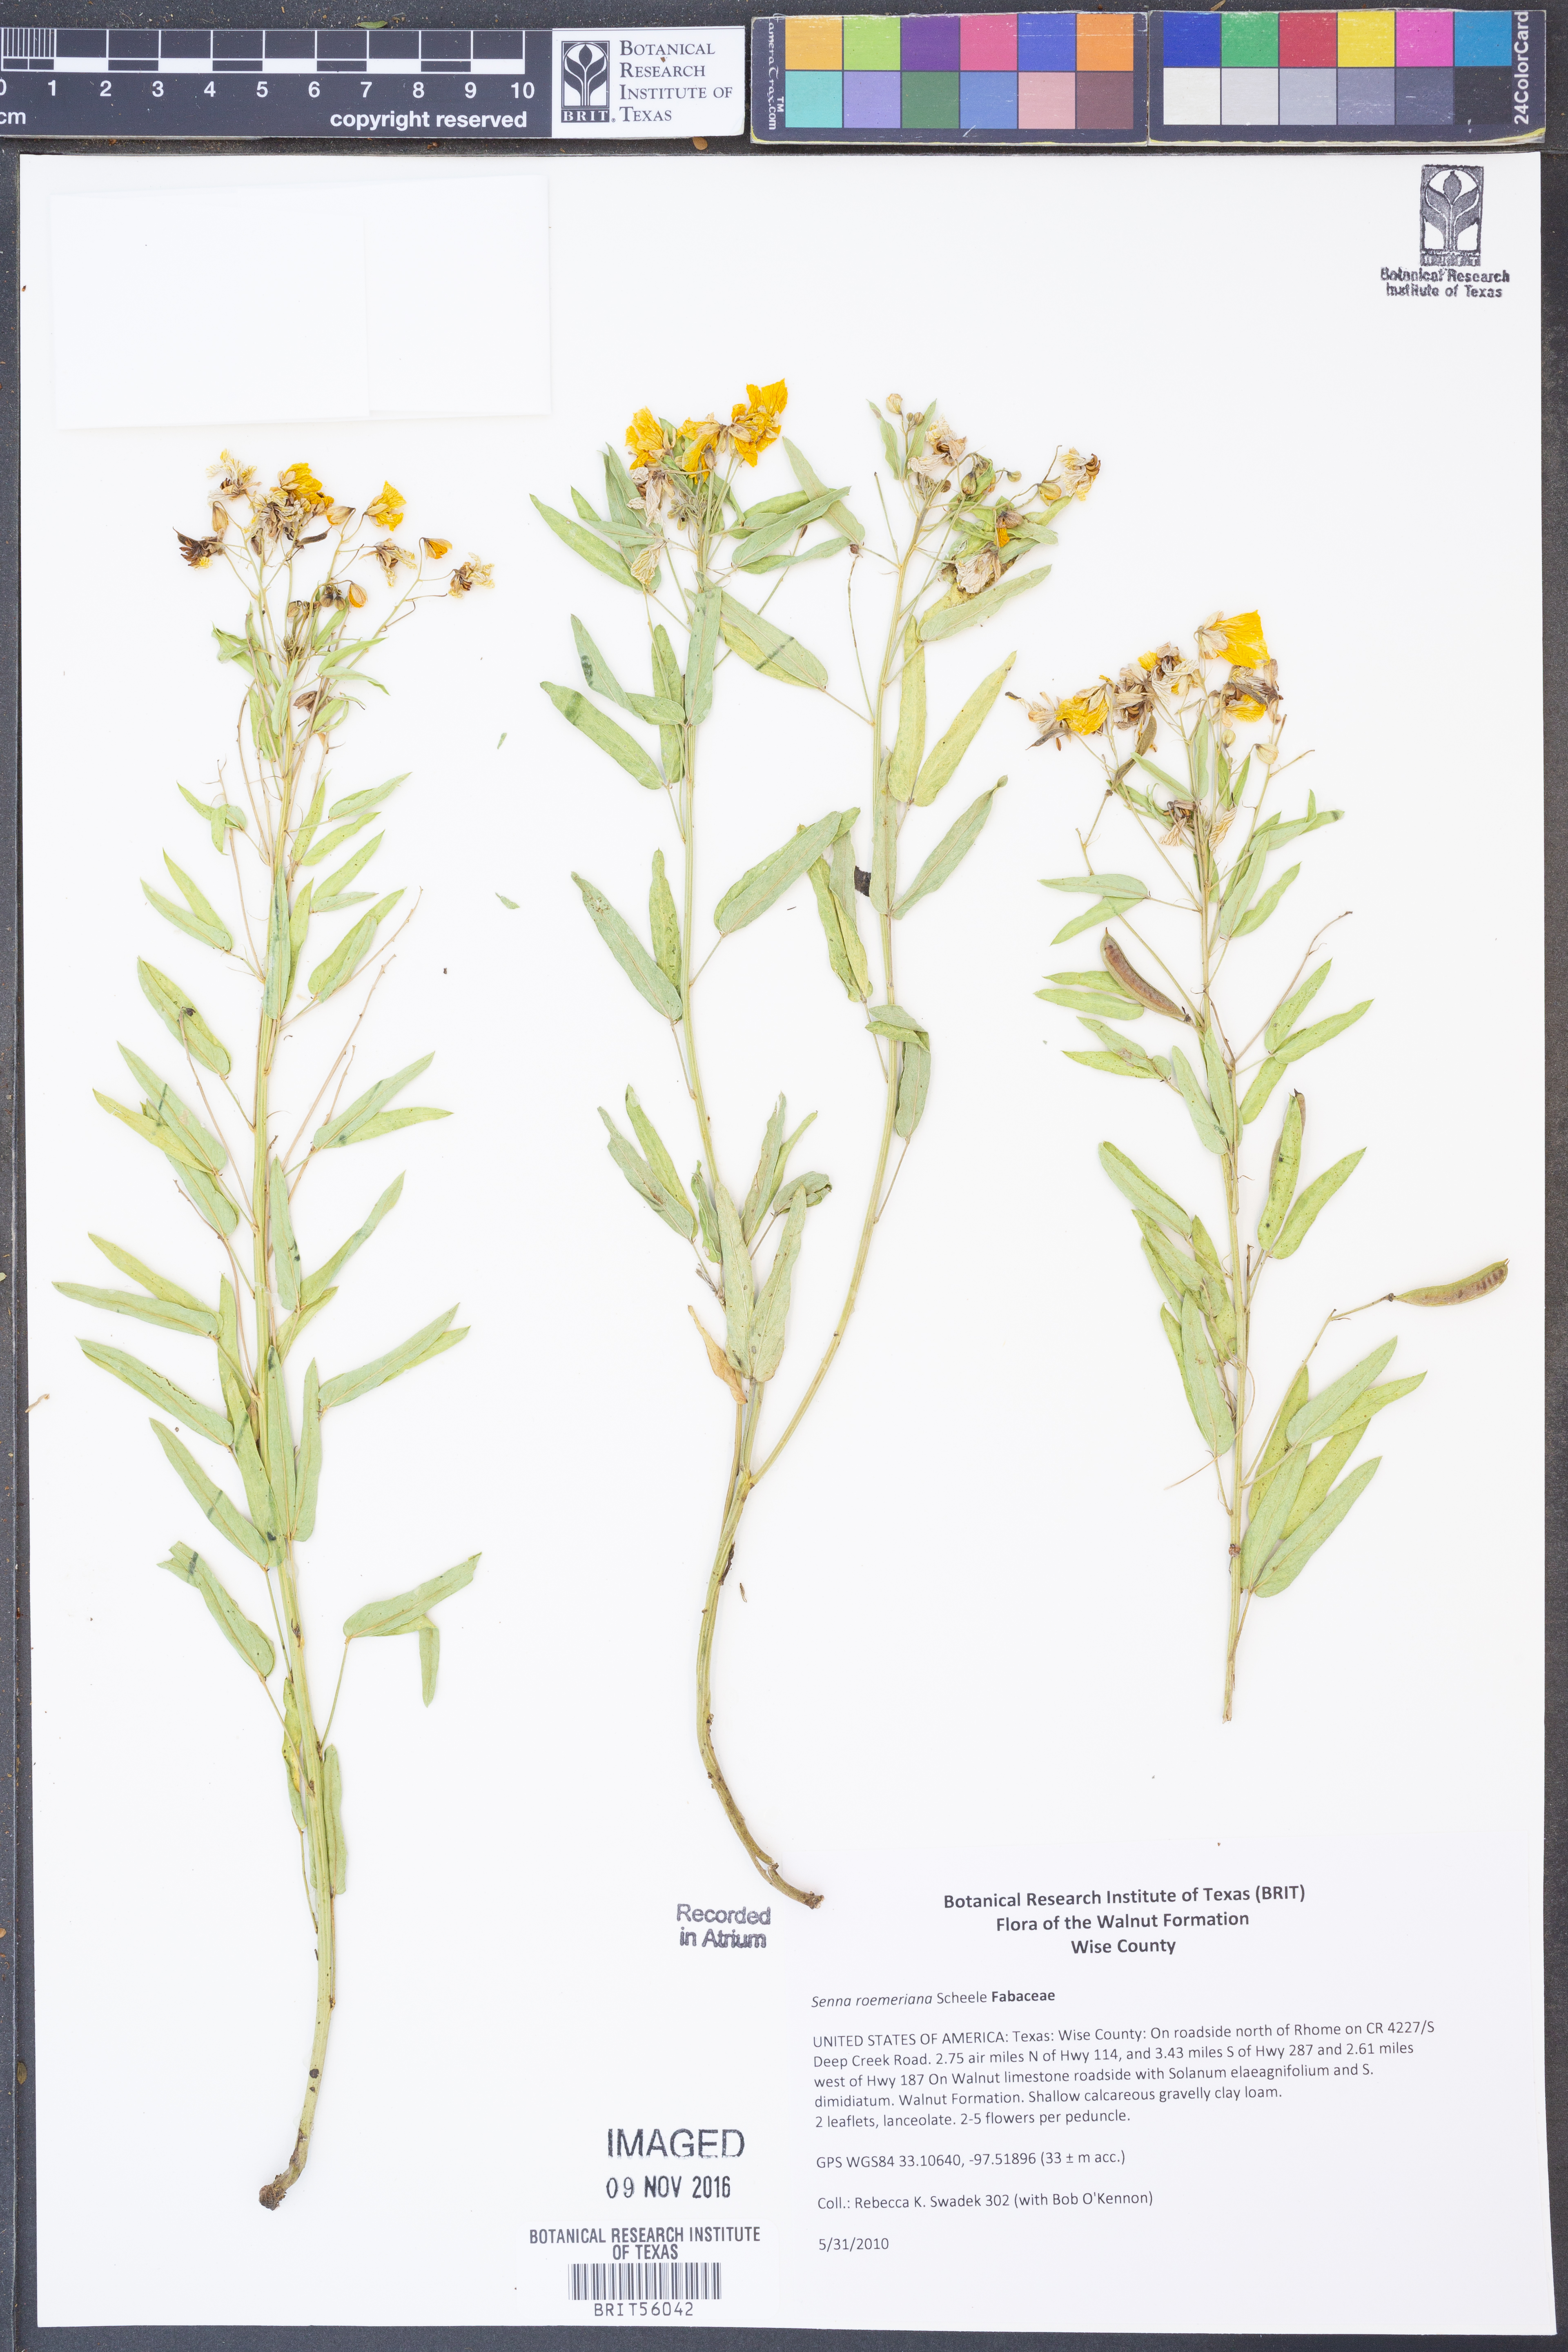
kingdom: Plantae
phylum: Tracheophyta
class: Magnoliopsida
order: Fabales
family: Fabaceae
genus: Senna
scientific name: Senna roemeriana
